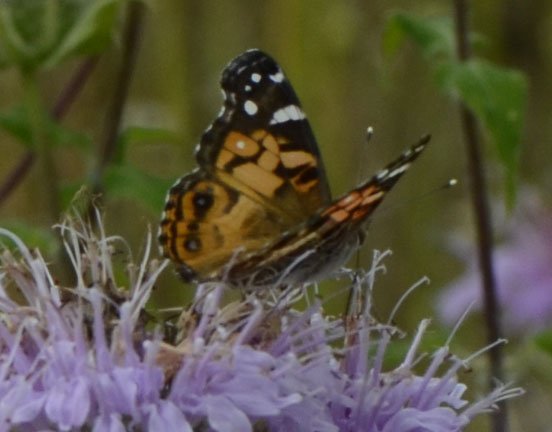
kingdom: Animalia
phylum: Arthropoda
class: Insecta
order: Lepidoptera
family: Nymphalidae
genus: Vanessa
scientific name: Vanessa virginiensis
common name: American Lady
